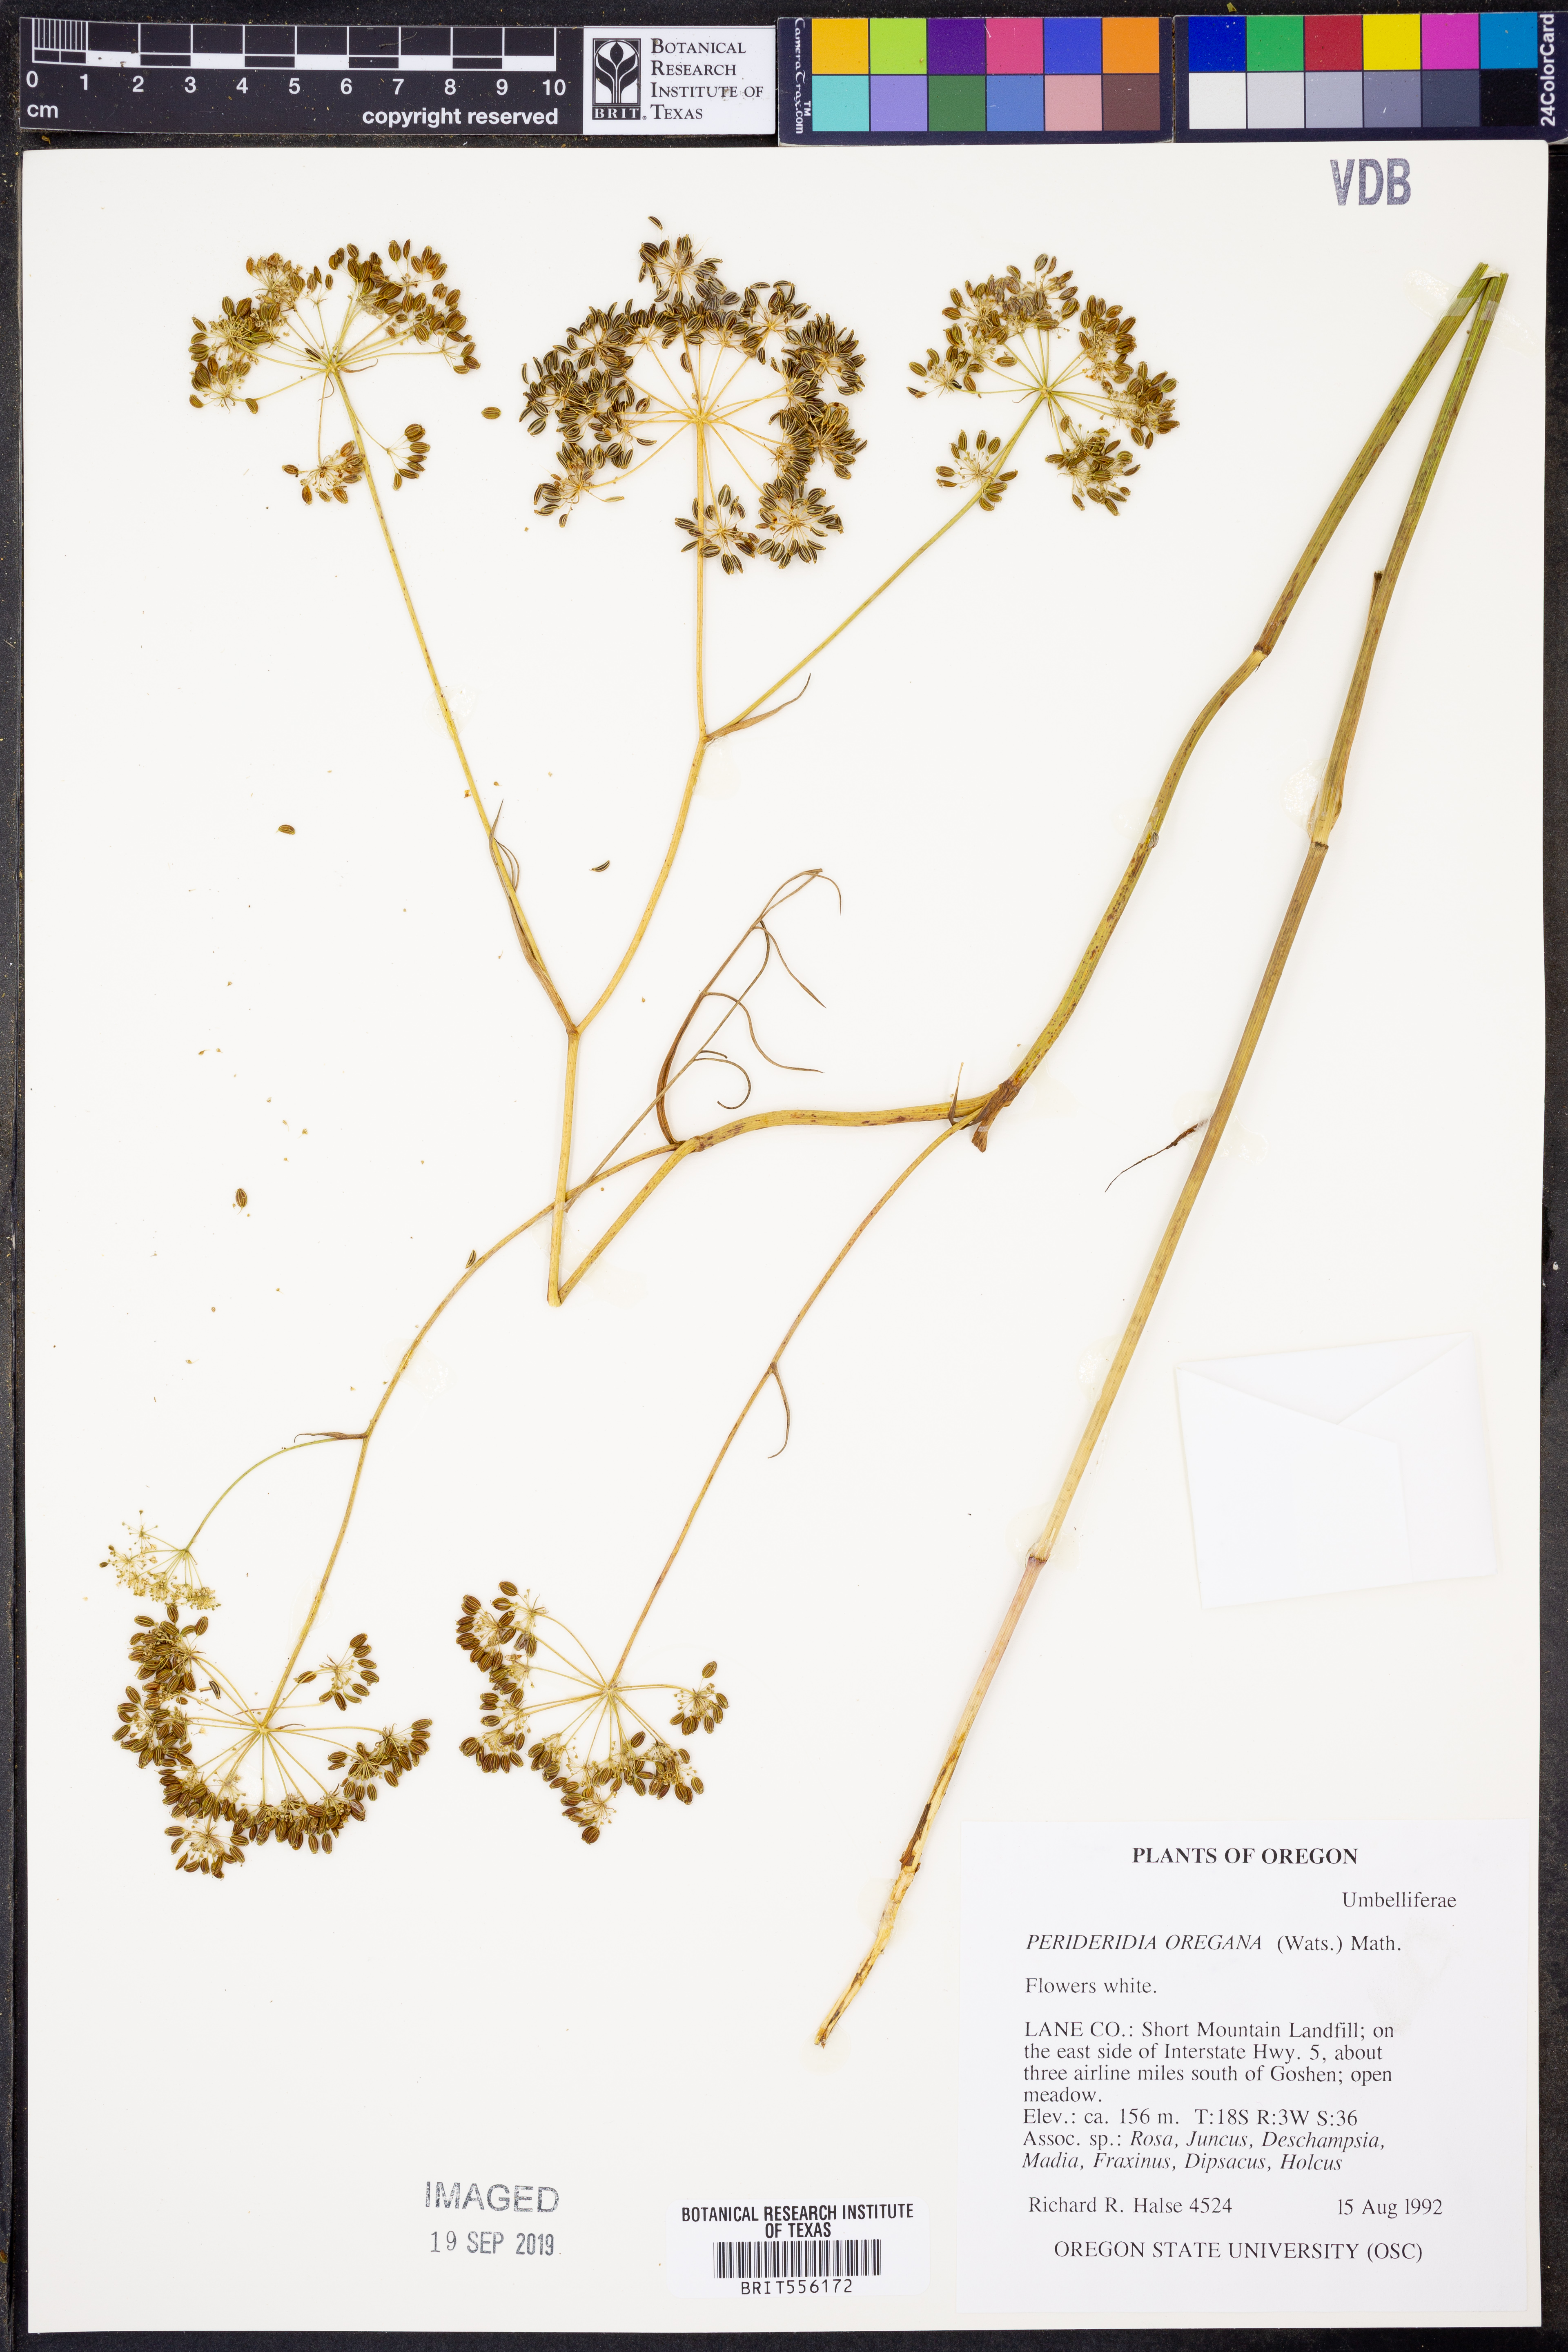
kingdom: Plantae
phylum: Tracheophyta
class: Magnoliopsida
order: Apiales
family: Apiaceae
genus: Perideridia
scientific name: Perideridia oregana
